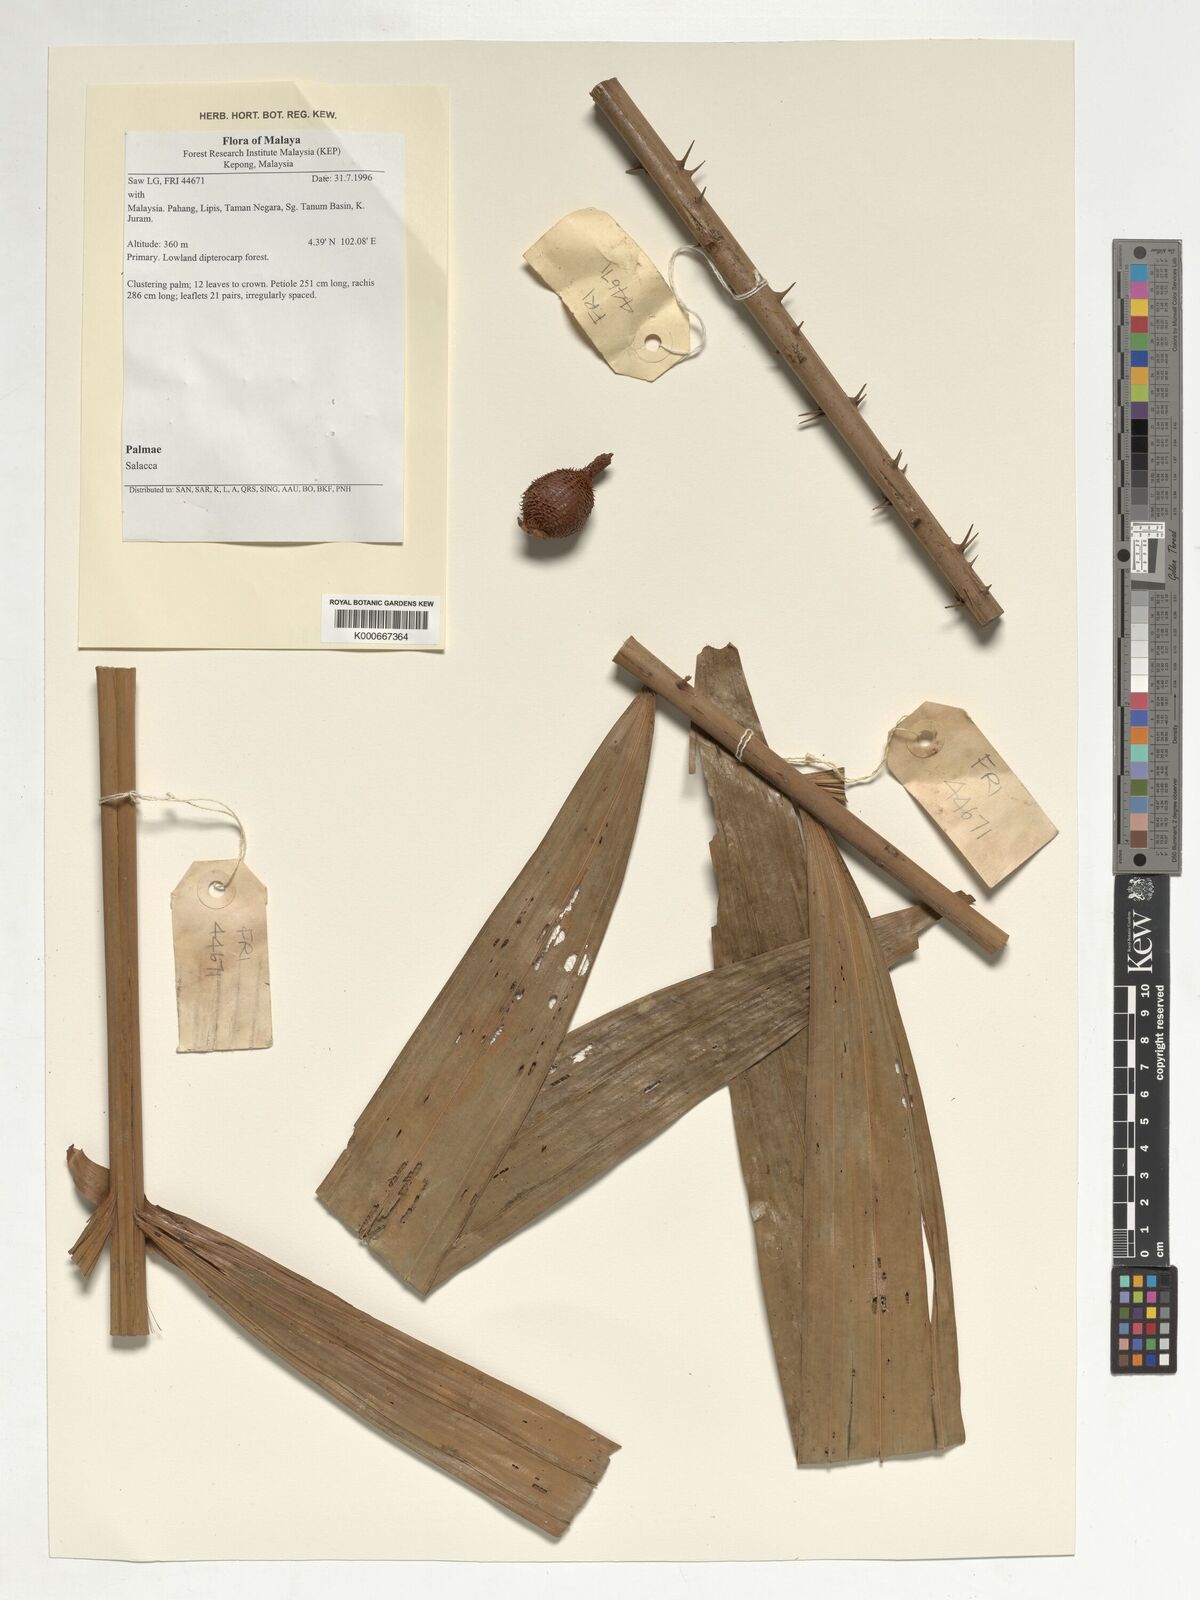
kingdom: Plantae
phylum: Tracheophyta
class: Liliopsida
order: Arecales
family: Arecaceae
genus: Salacca
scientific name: Salacca
